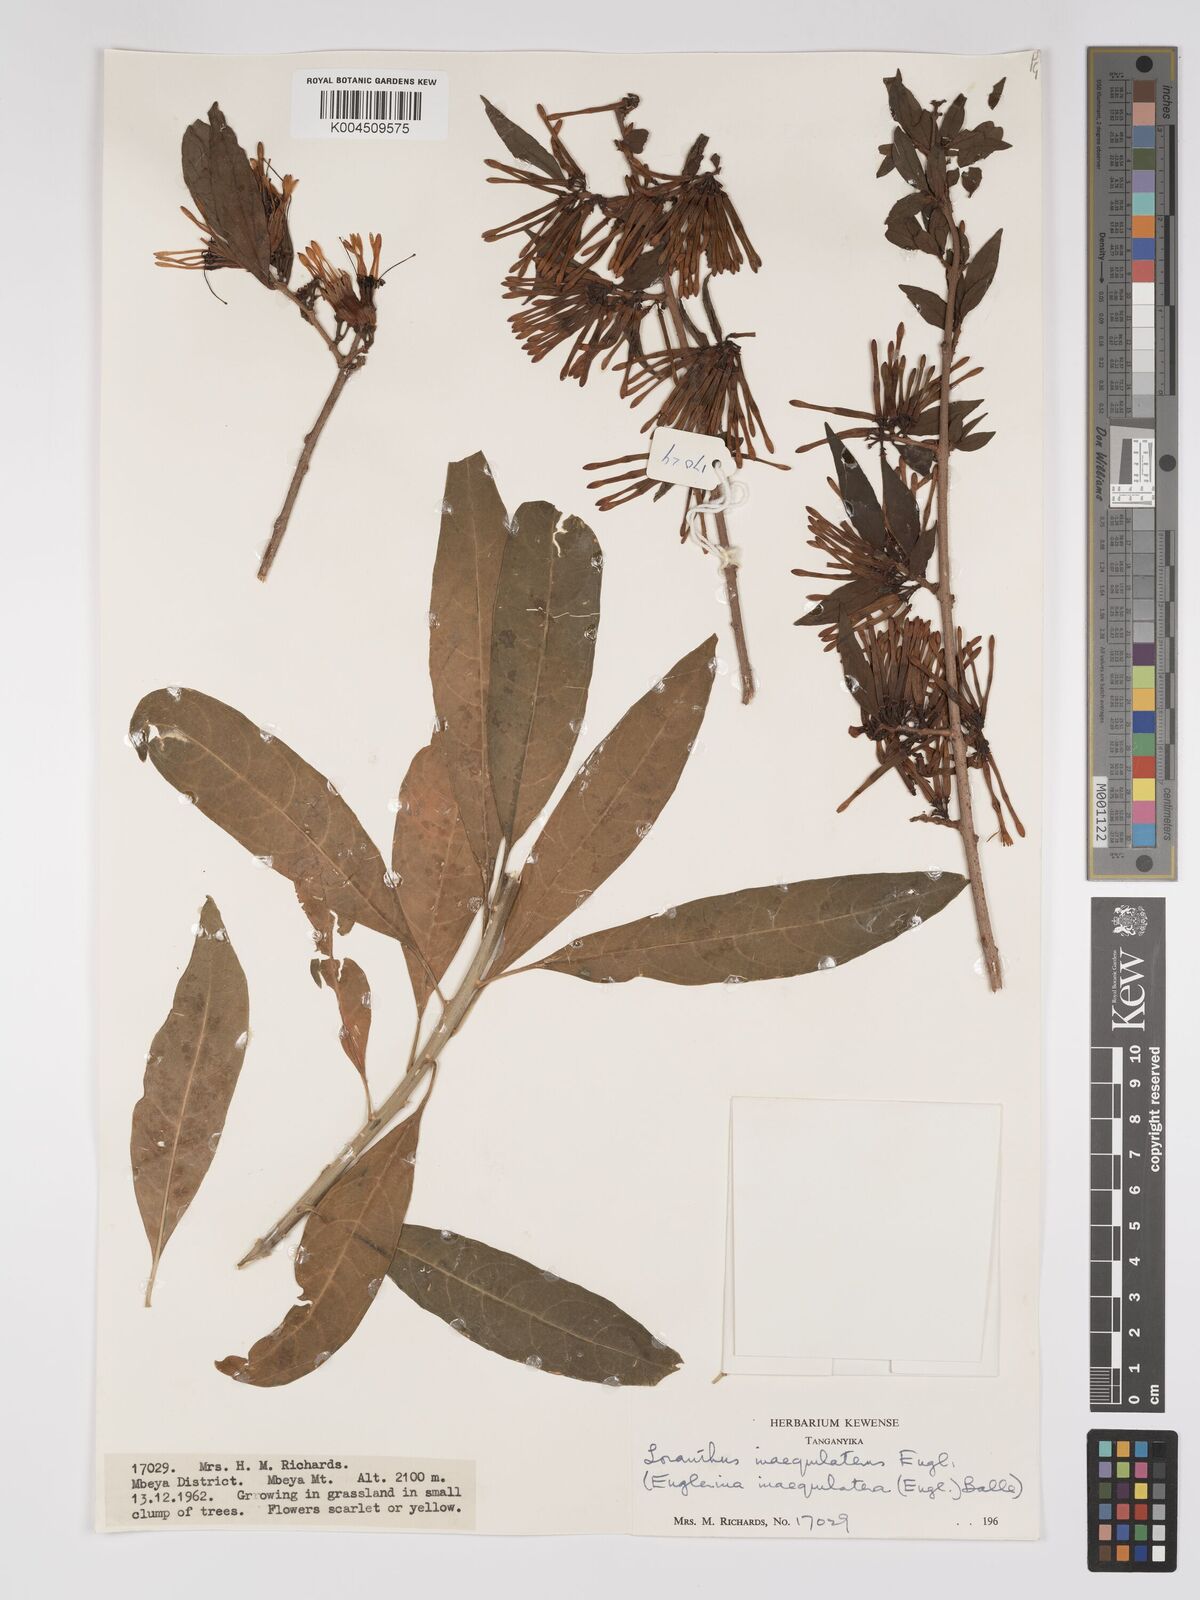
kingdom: Plantae
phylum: Tracheophyta
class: Magnoliopsida
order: Santalales
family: Loranthaceae
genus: Englerina
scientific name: Englerina inaequilatera
